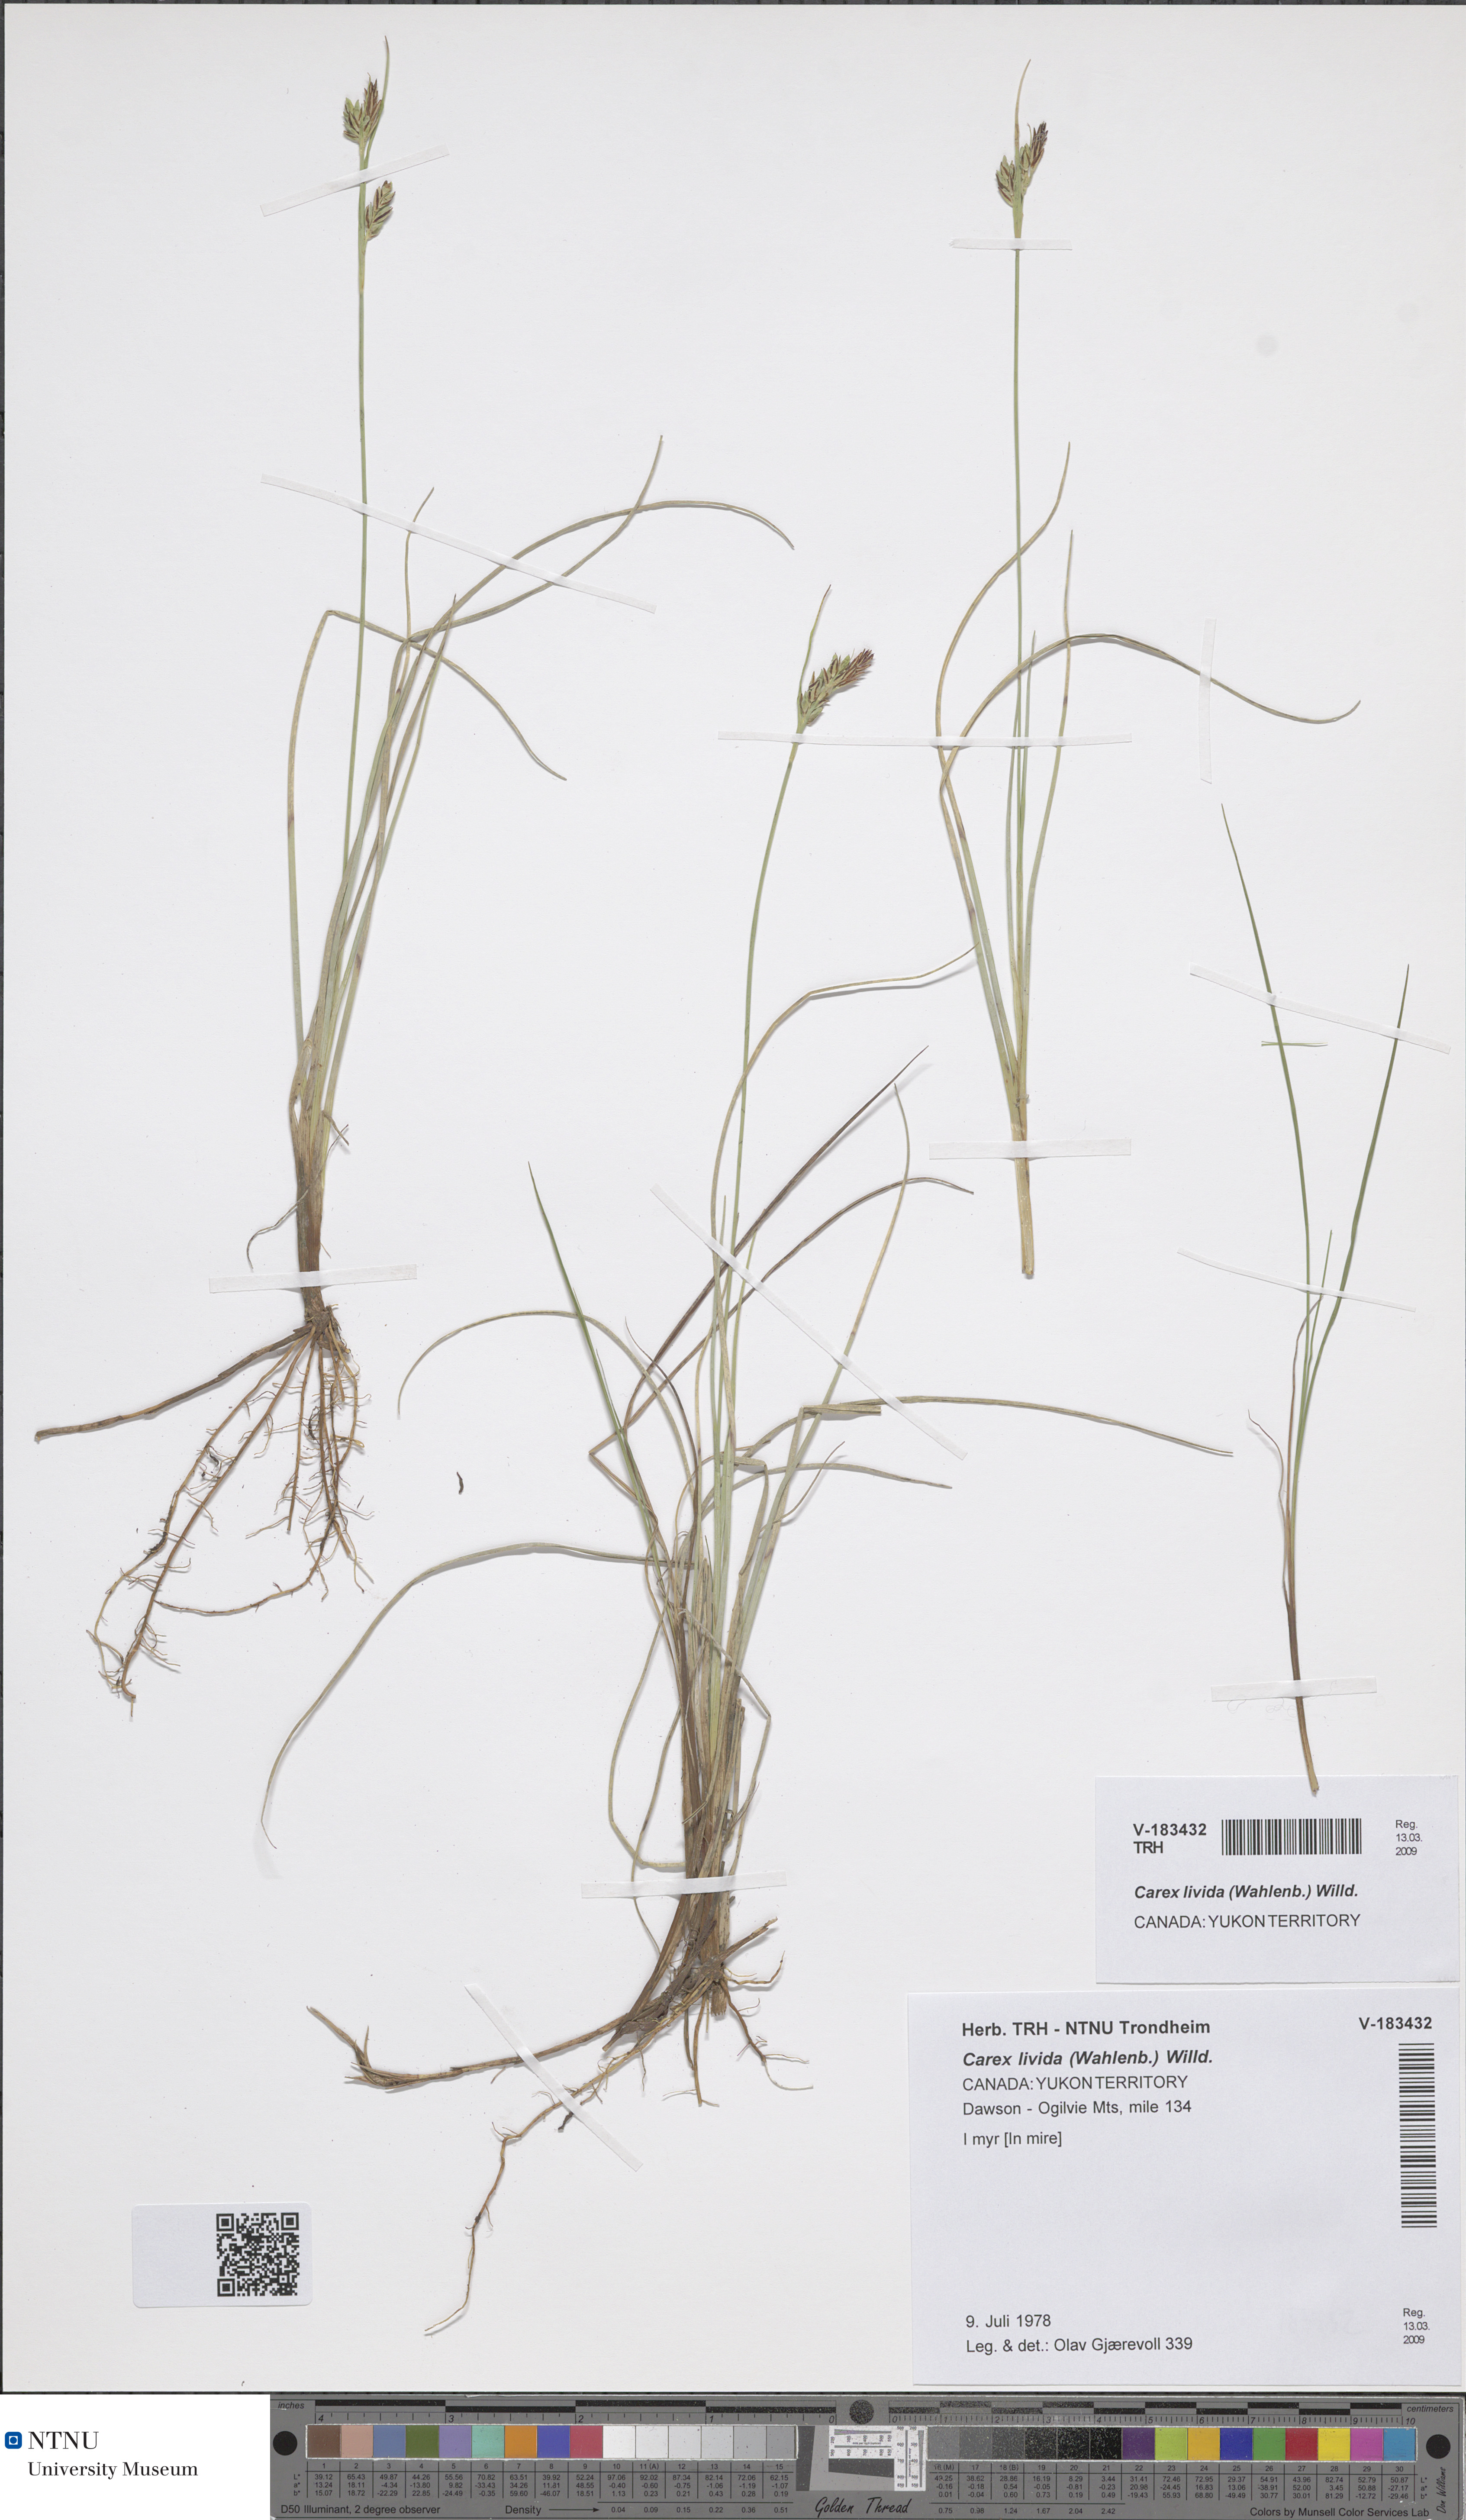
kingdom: Plantae
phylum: Tracheophyta
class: Liliopsida
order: Poales
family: Cyperaceae
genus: Carex
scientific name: Carex livida
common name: Livid sedge
